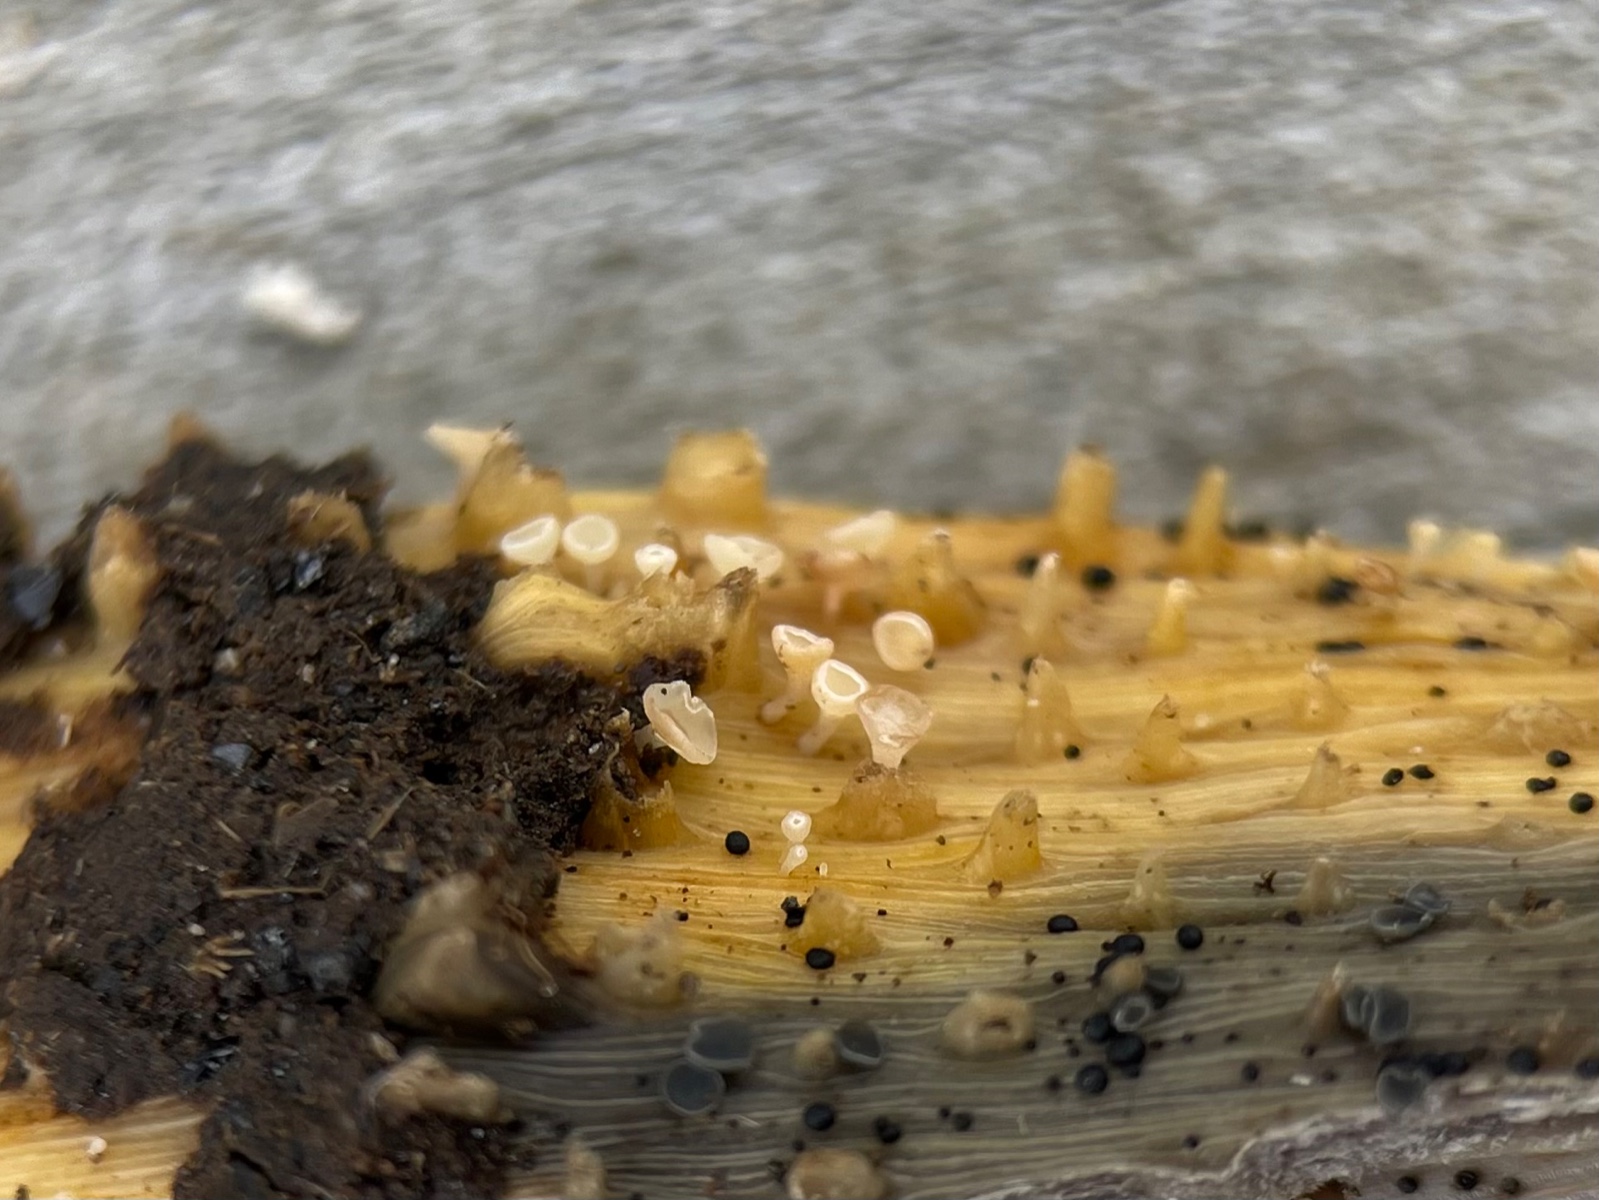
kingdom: Fungi
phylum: Ascomycota
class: Leotiomycetes
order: Helotiales
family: Helotiaceae
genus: Cyathicula
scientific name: Cyathicula cyathoidea
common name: pokal-stilkskive
